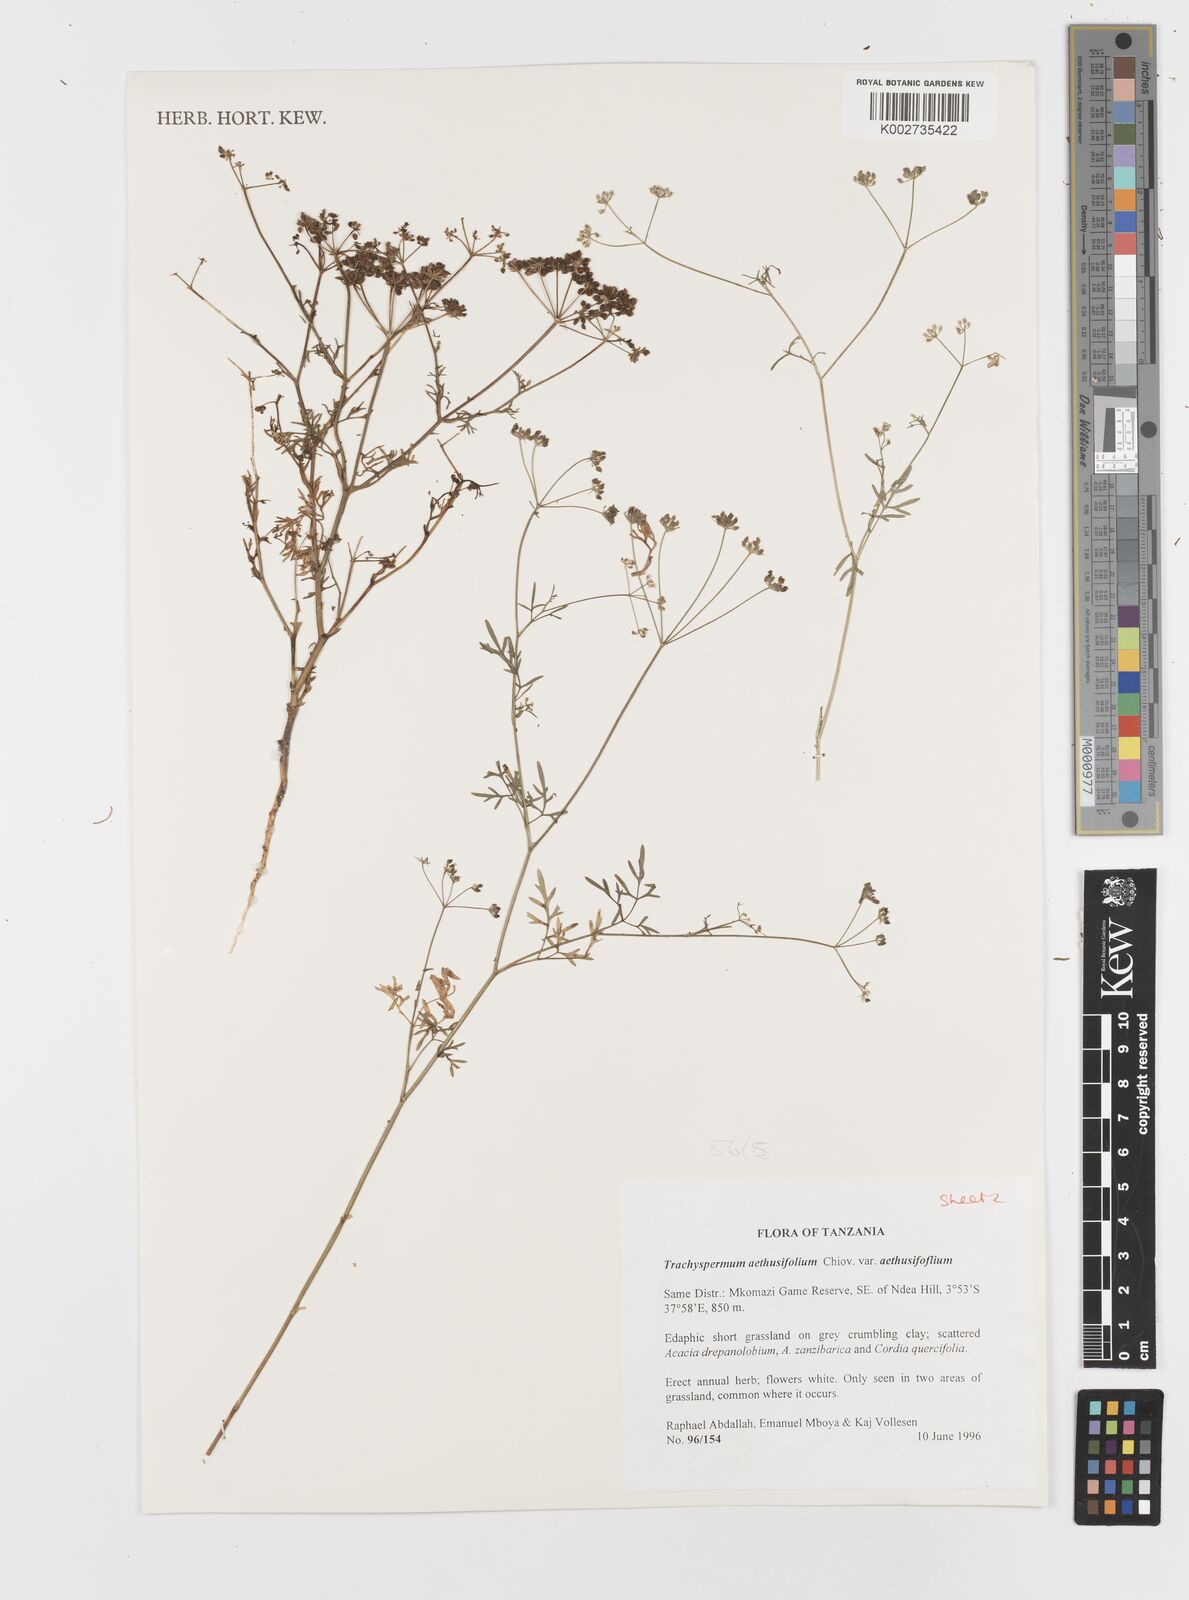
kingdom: Plantae
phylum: Tracheophyta
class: Magnoliopsida
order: Apiales
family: Apiaceae
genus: Trachyspermum
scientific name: Trachyspermum pimpinelloides
